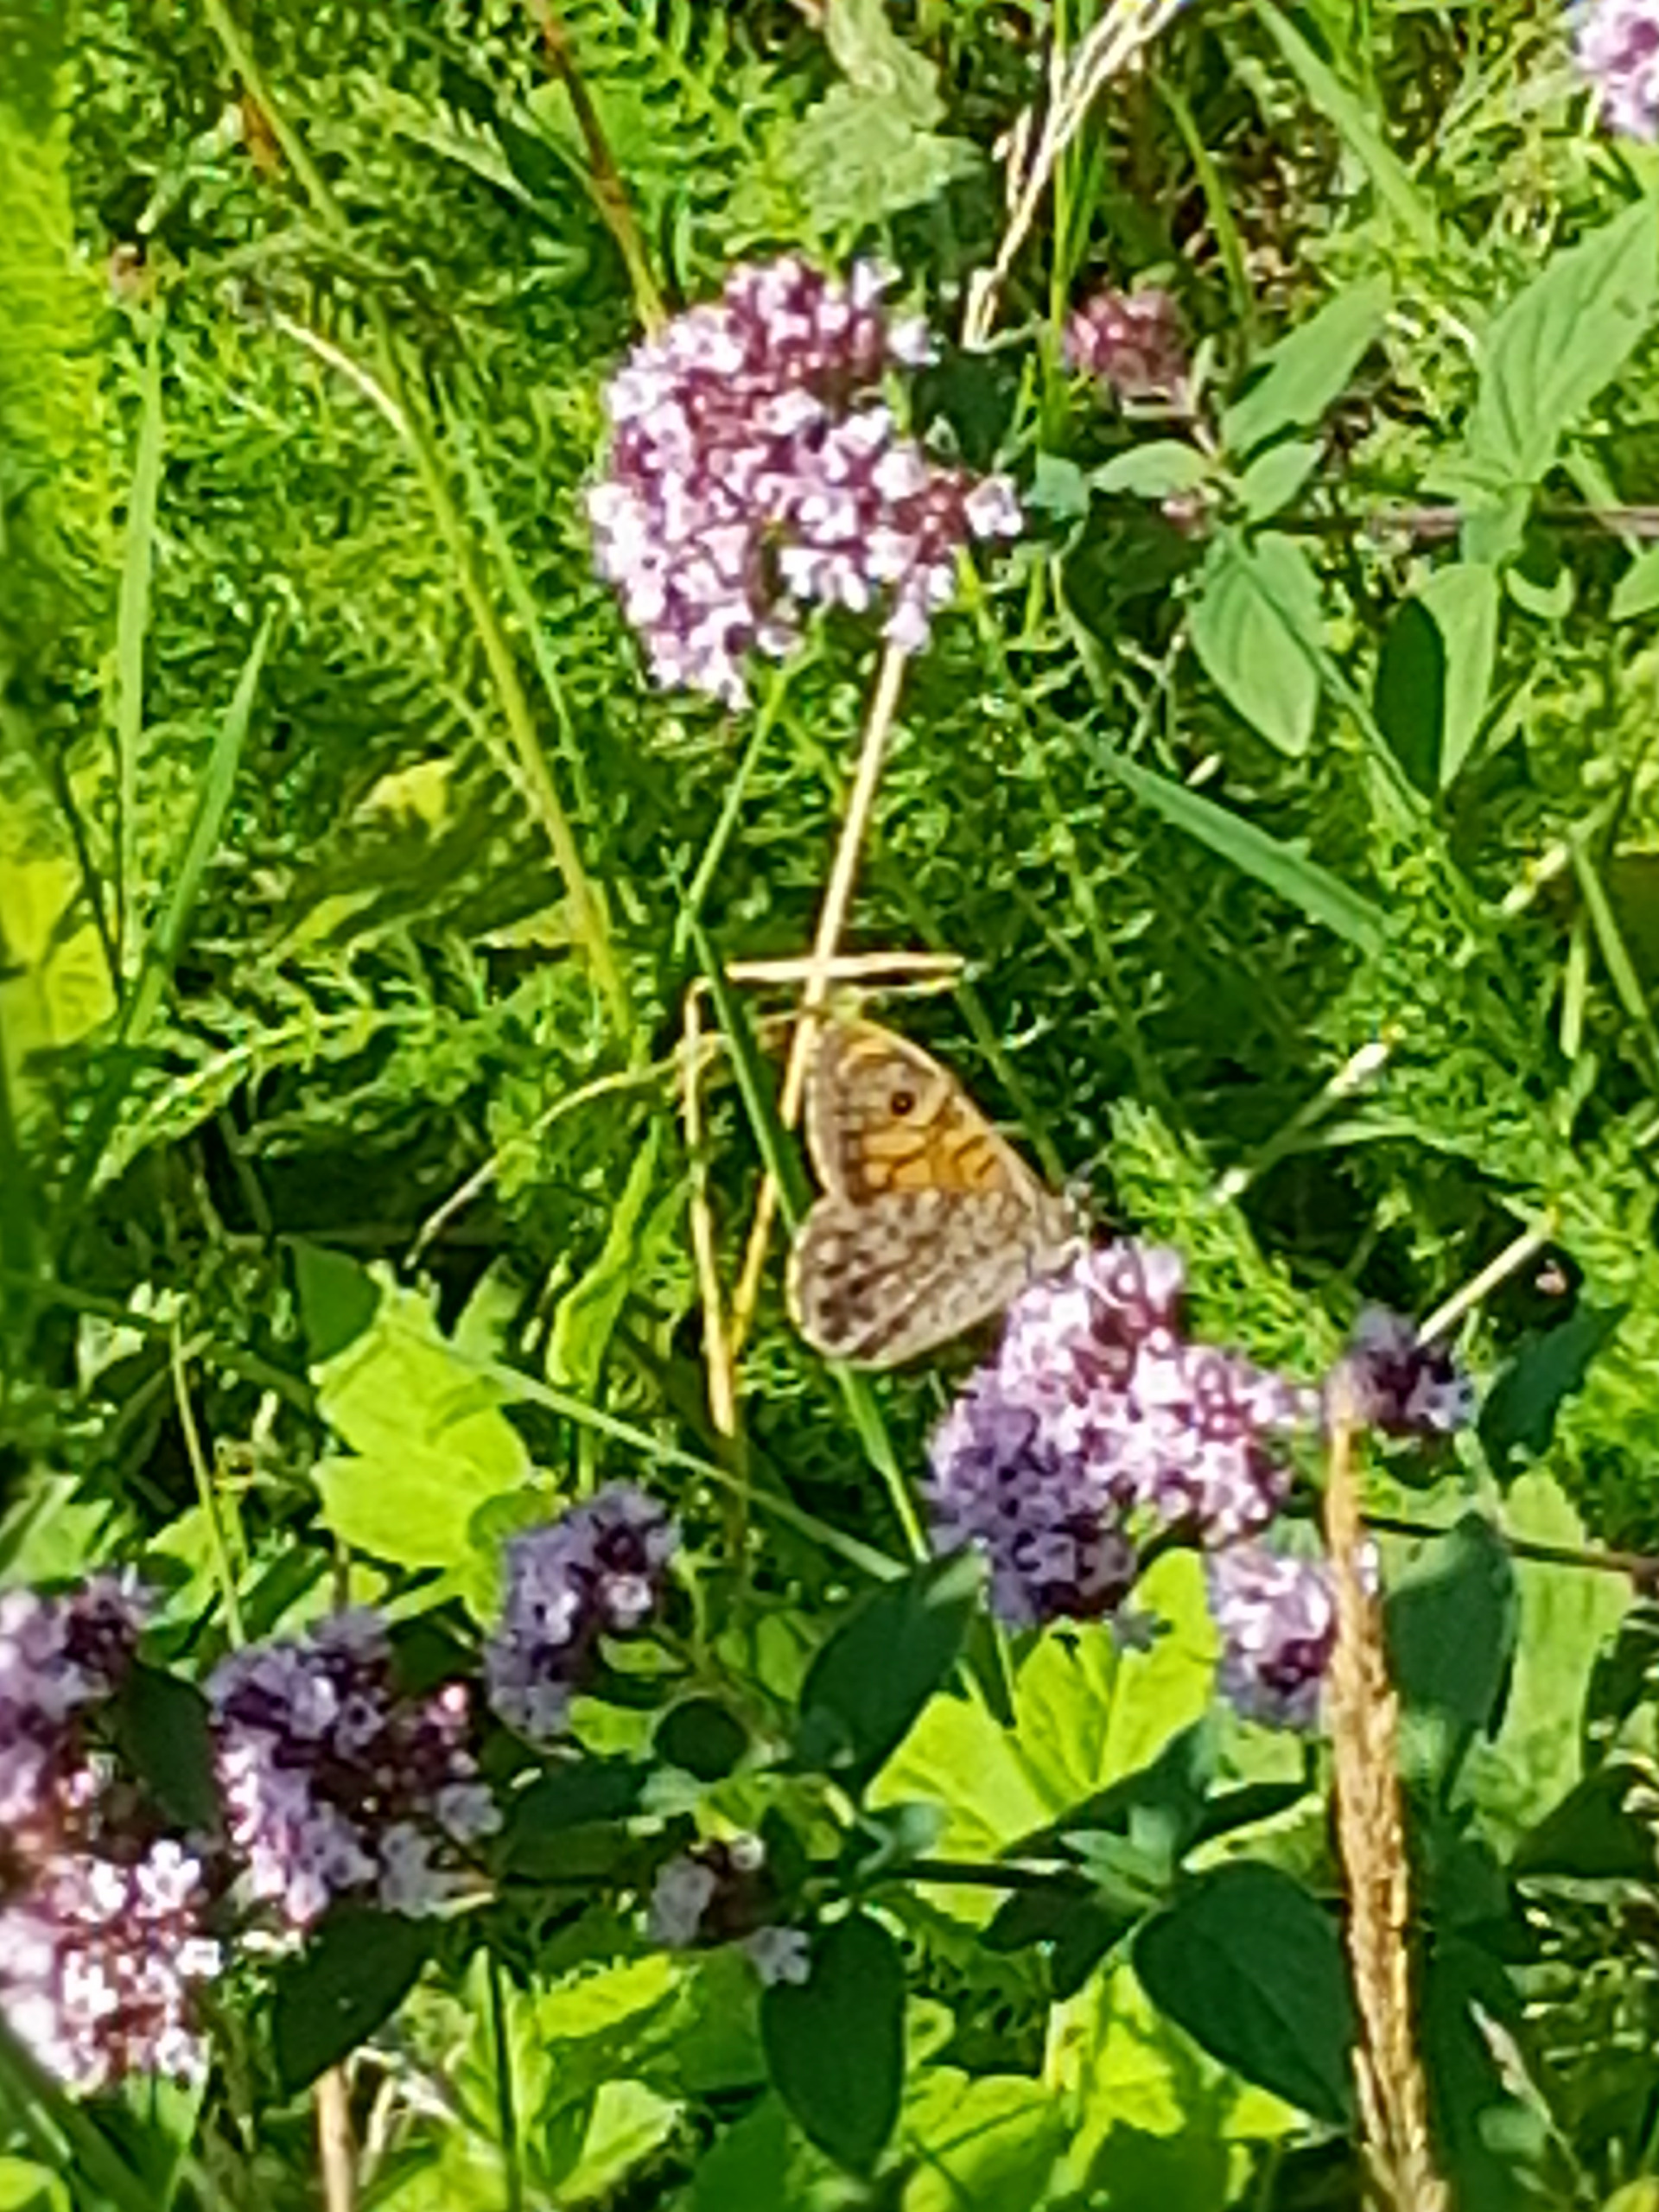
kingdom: Animalia
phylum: Arthropoda
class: Insecta
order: Lepidoptera
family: Nymphalidae
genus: Pararge
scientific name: Pararge Lasiommata megera
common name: Vejrandøje
